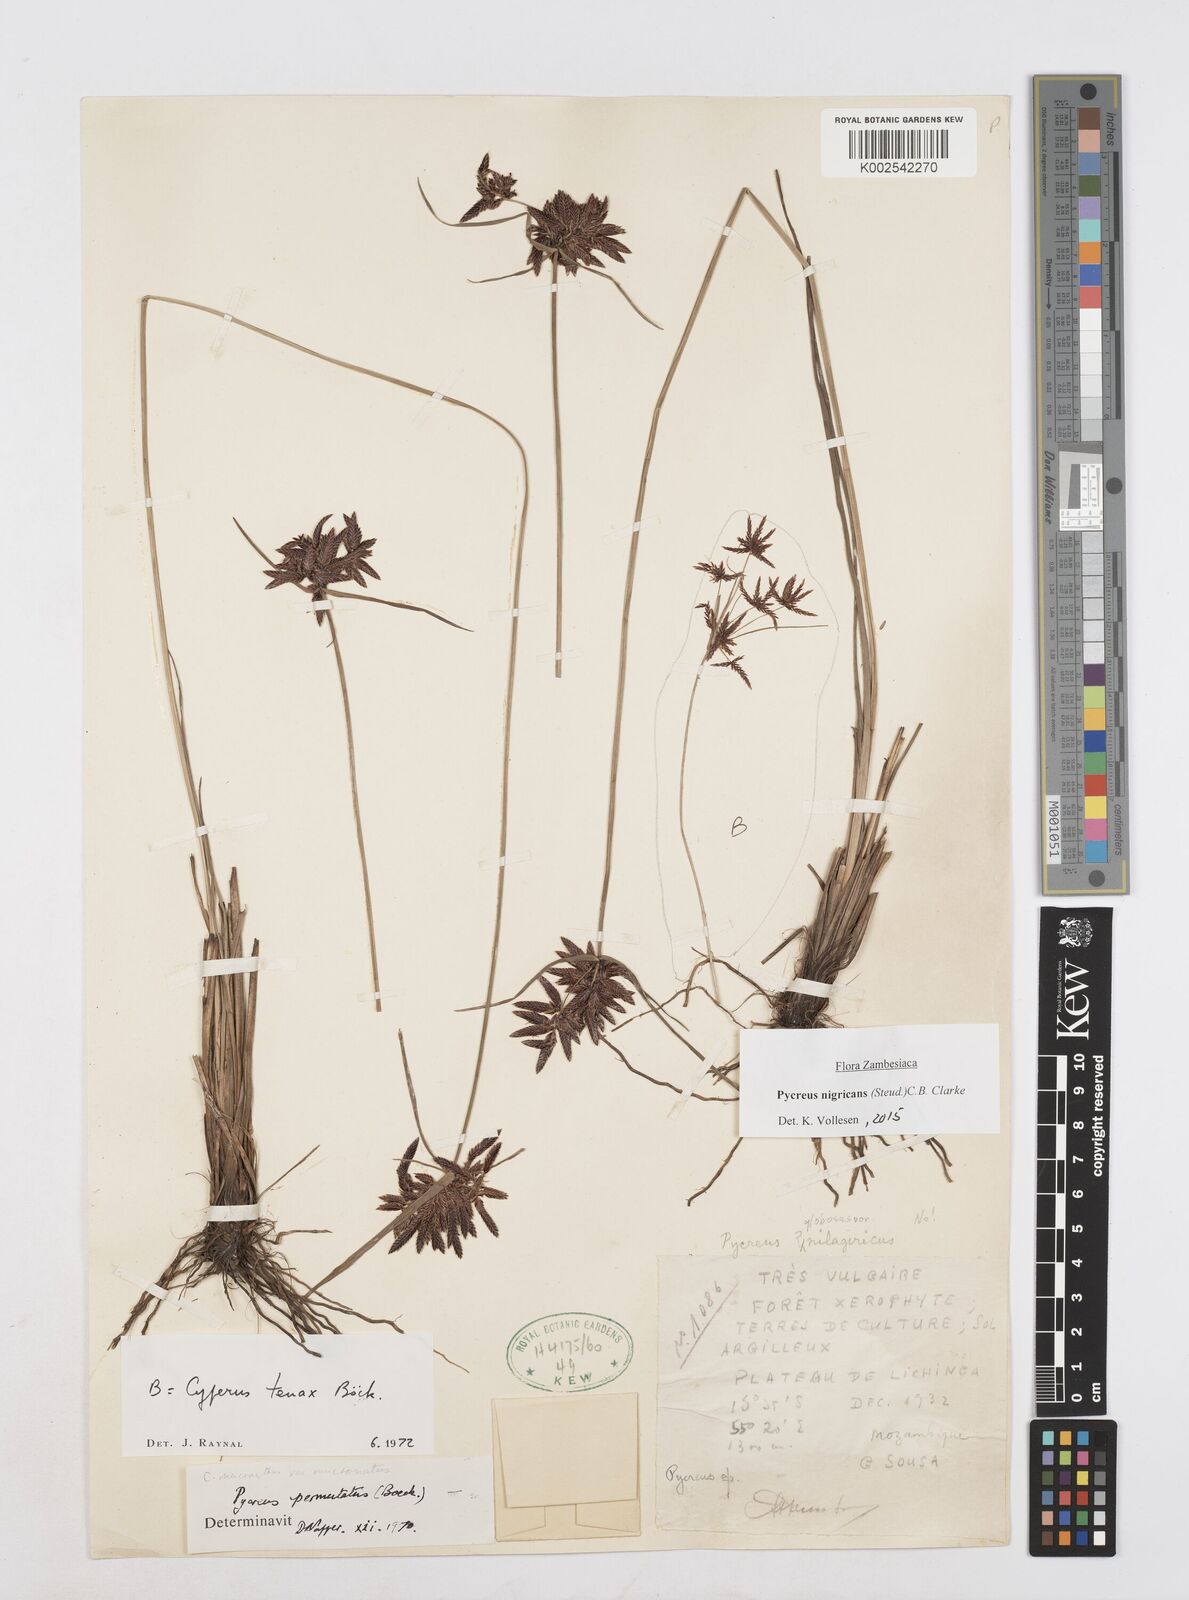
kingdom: Plantae
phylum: Tracheophyta
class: Liliopsida
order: Poales
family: Cyperaceae
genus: Cyperus
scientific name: Cyperus nigricans
